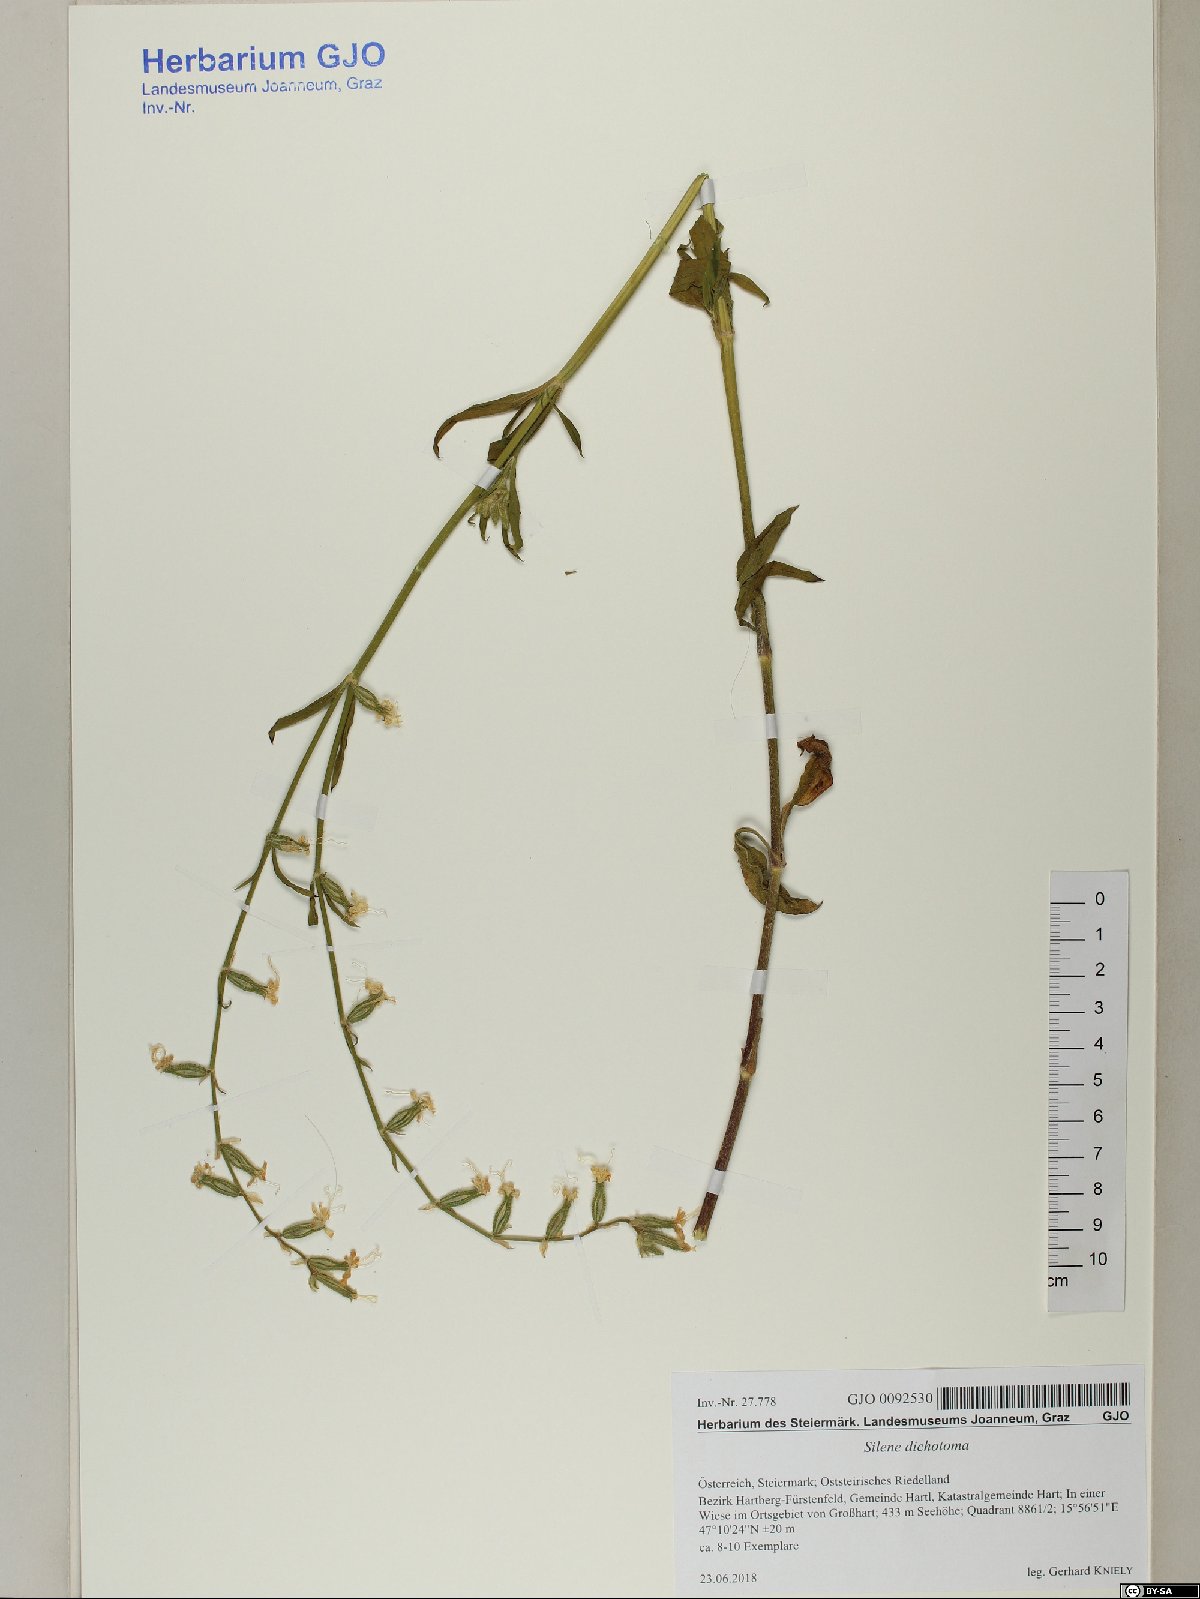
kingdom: Plantae
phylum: Tracheophyta
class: Magnoliopsida
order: Caryophyllales
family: Caryophyllaceae
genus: Silene
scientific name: Silene dichotoma
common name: Forked catchfly
